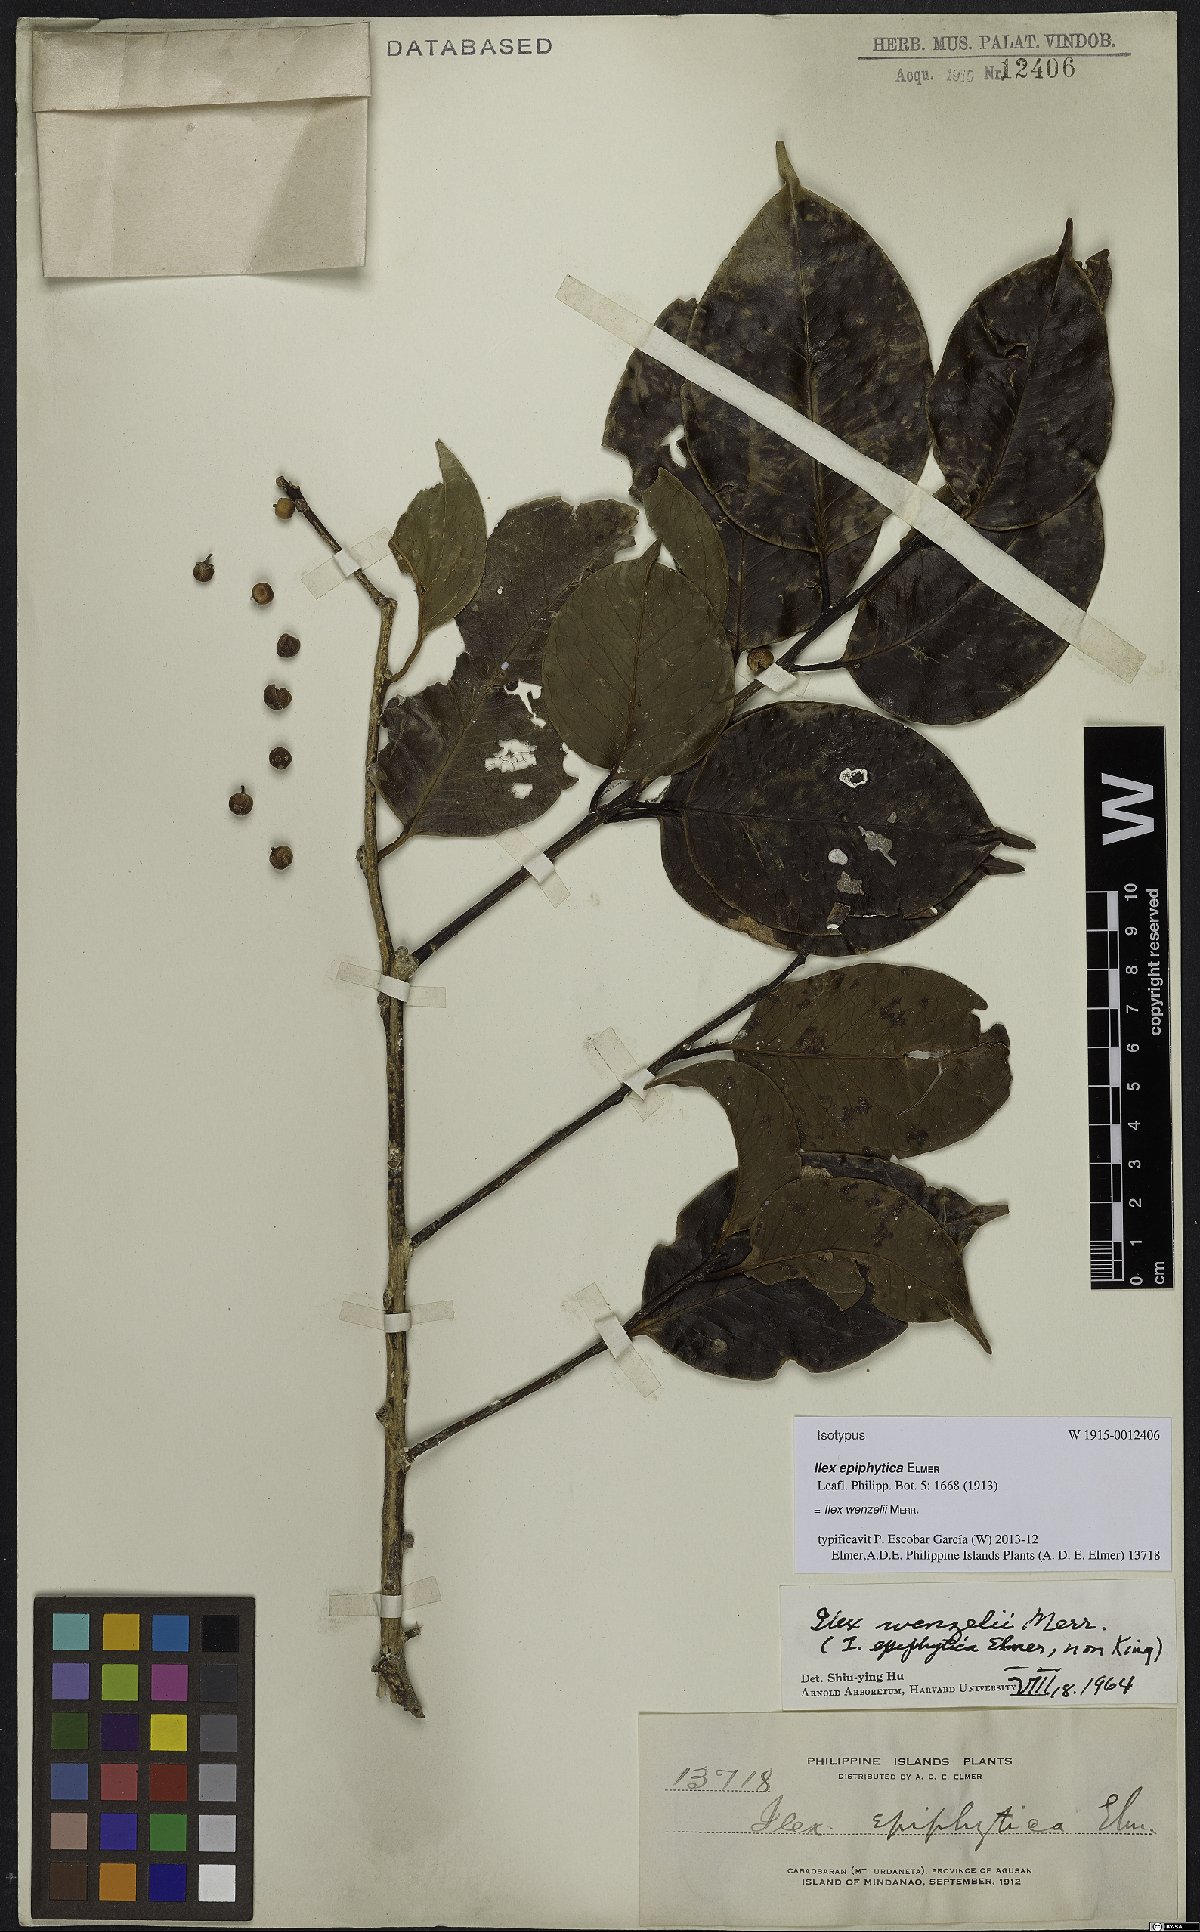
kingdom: Plantae
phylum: Tracheophyta
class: Magnoliopsida
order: Aquifoliales
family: Aquifoliaceae
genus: Ilex
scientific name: Ilex wenzelii
